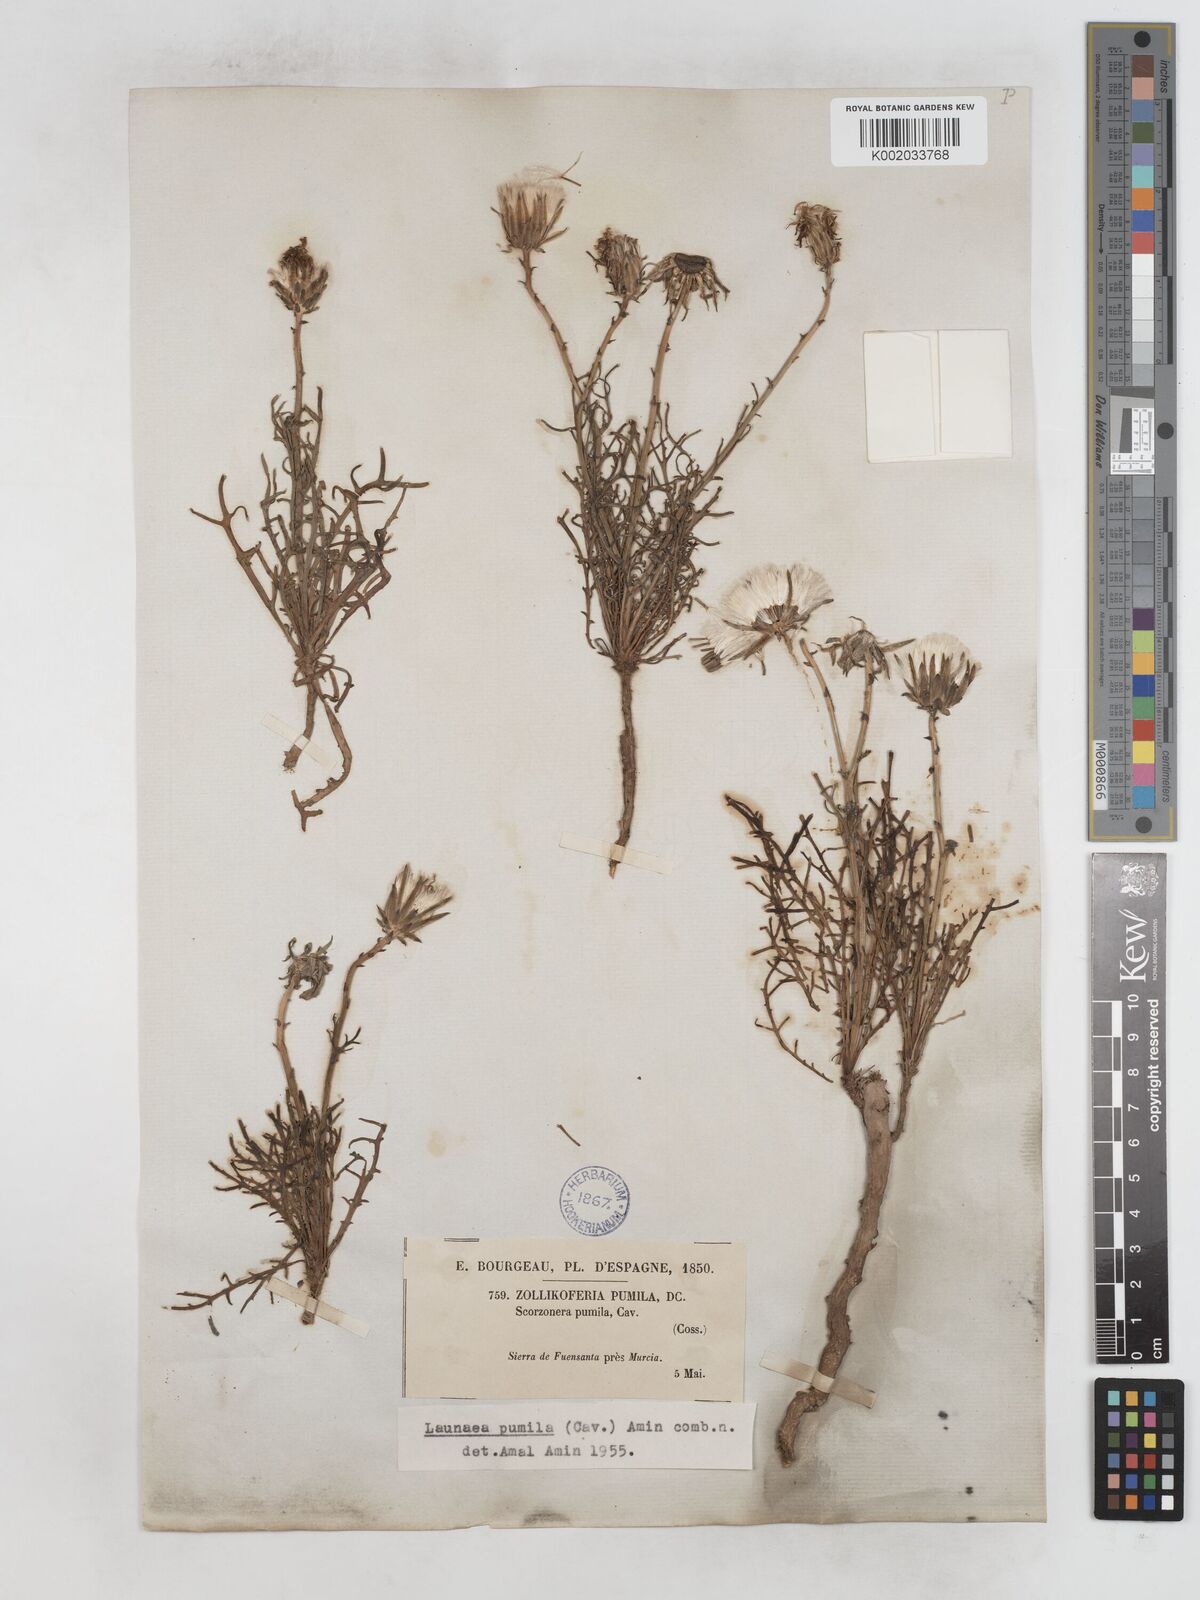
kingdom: Plantae
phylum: Tracheophyta
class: Magnoliopsida
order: Asterales
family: Asteraceae
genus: Launaea
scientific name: Launaea pumila
